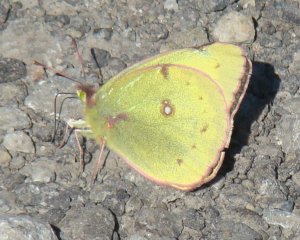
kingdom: Animalia
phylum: Arthropoda
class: Insecta
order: Lepidoptera
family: Pieridae
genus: Colias
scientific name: Colias philodice
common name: Clouded Sulphur
